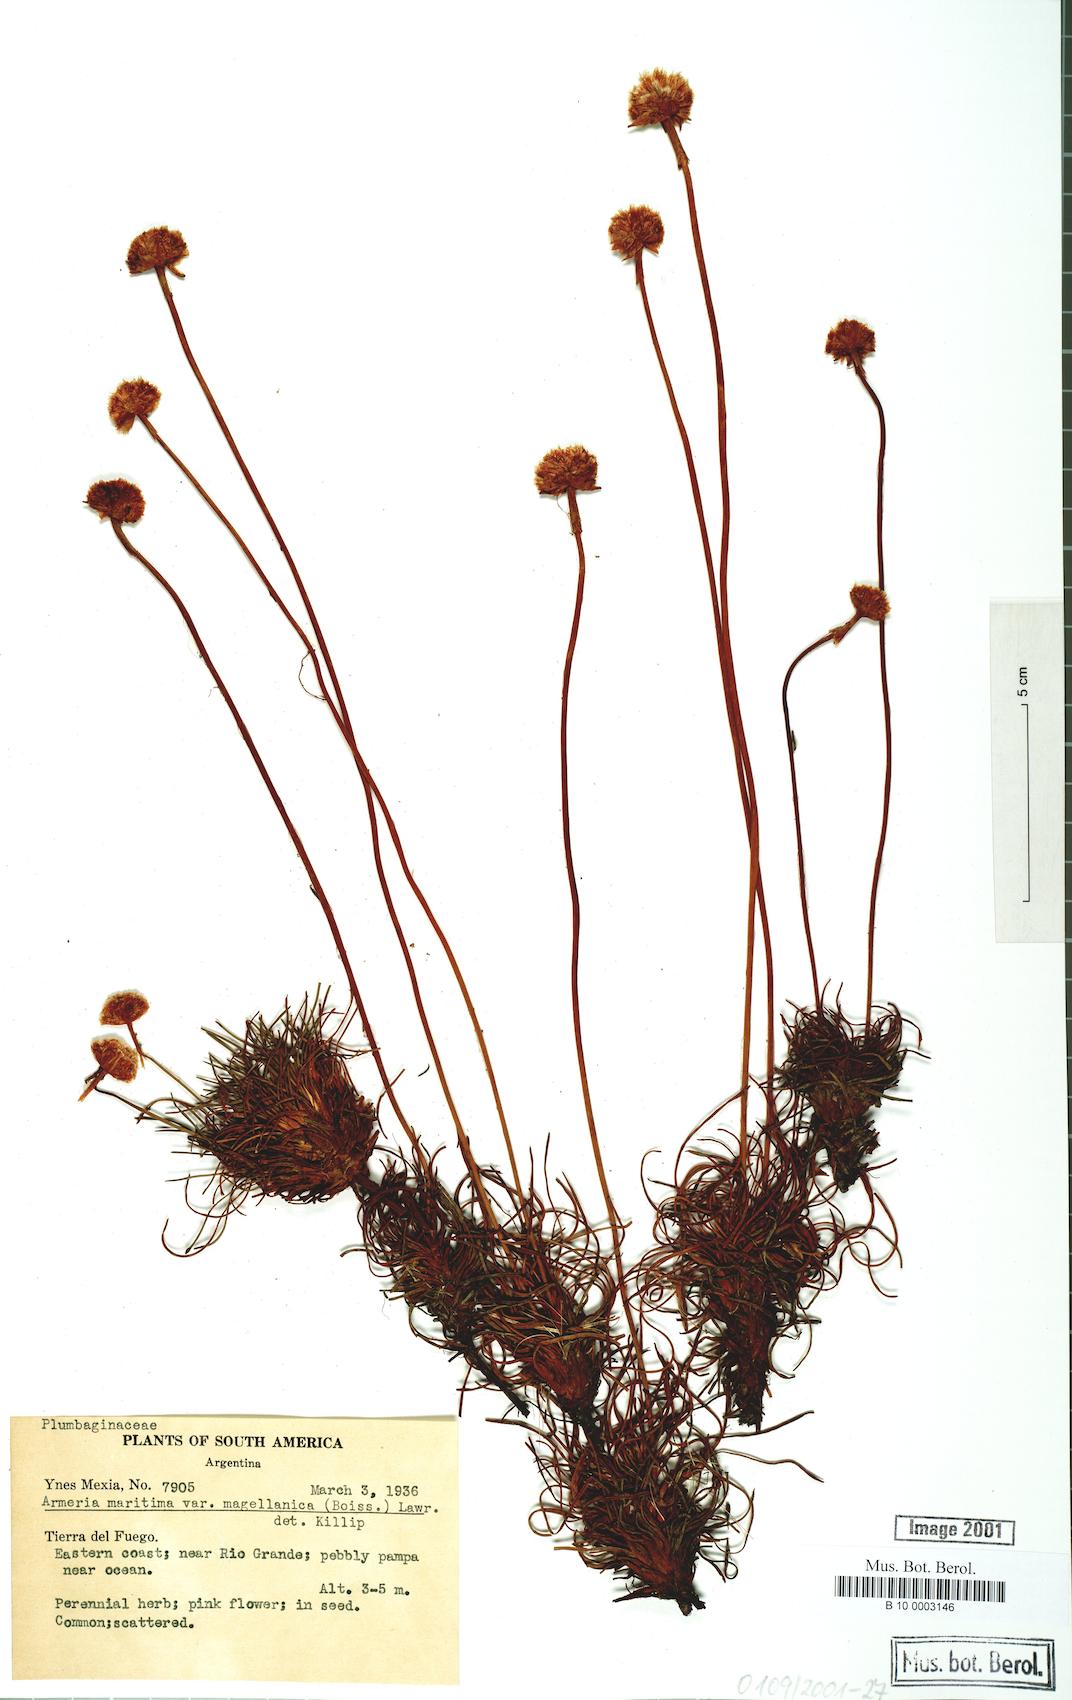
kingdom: Plantae
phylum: Tracheophyta
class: Magnoliopsida
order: Caryophyllales
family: Plumbaginaceae
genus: Armeria
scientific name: Armeria curvifolia
